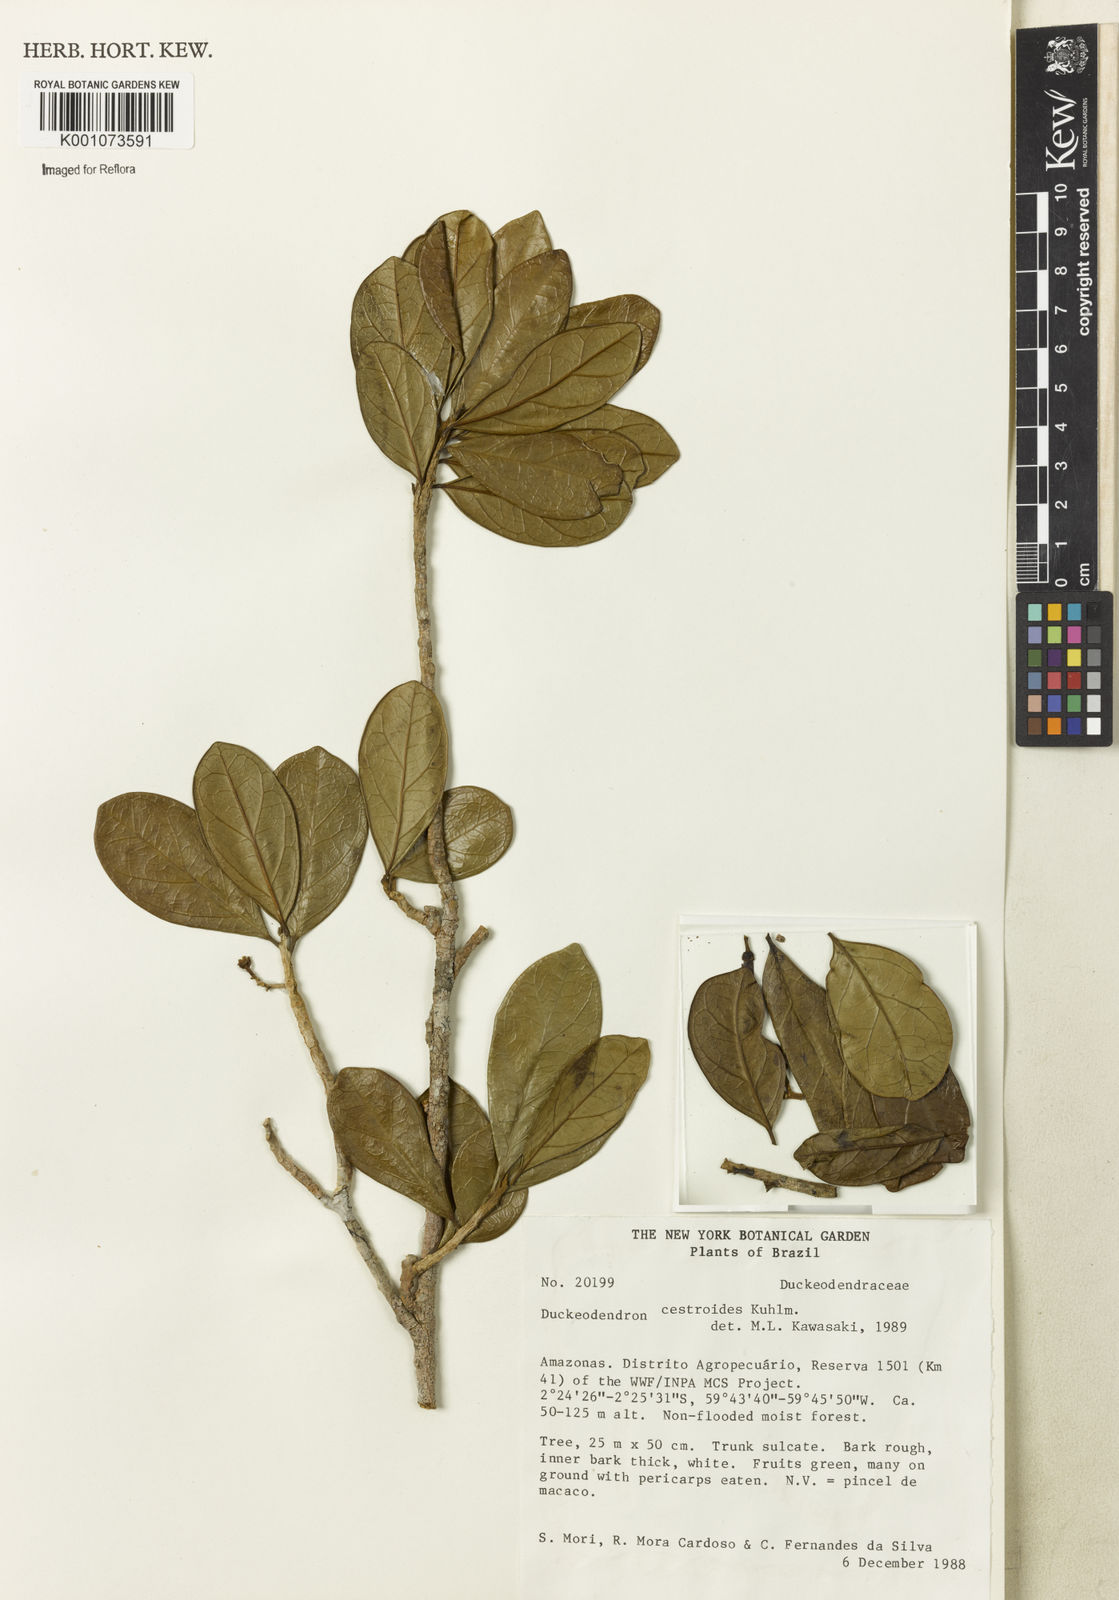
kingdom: Plantae
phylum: Tracheophyta
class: Magnoliopsida
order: Solanales
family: Solanaceae
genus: Duckeodendron
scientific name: Duckeodendron cestroides
